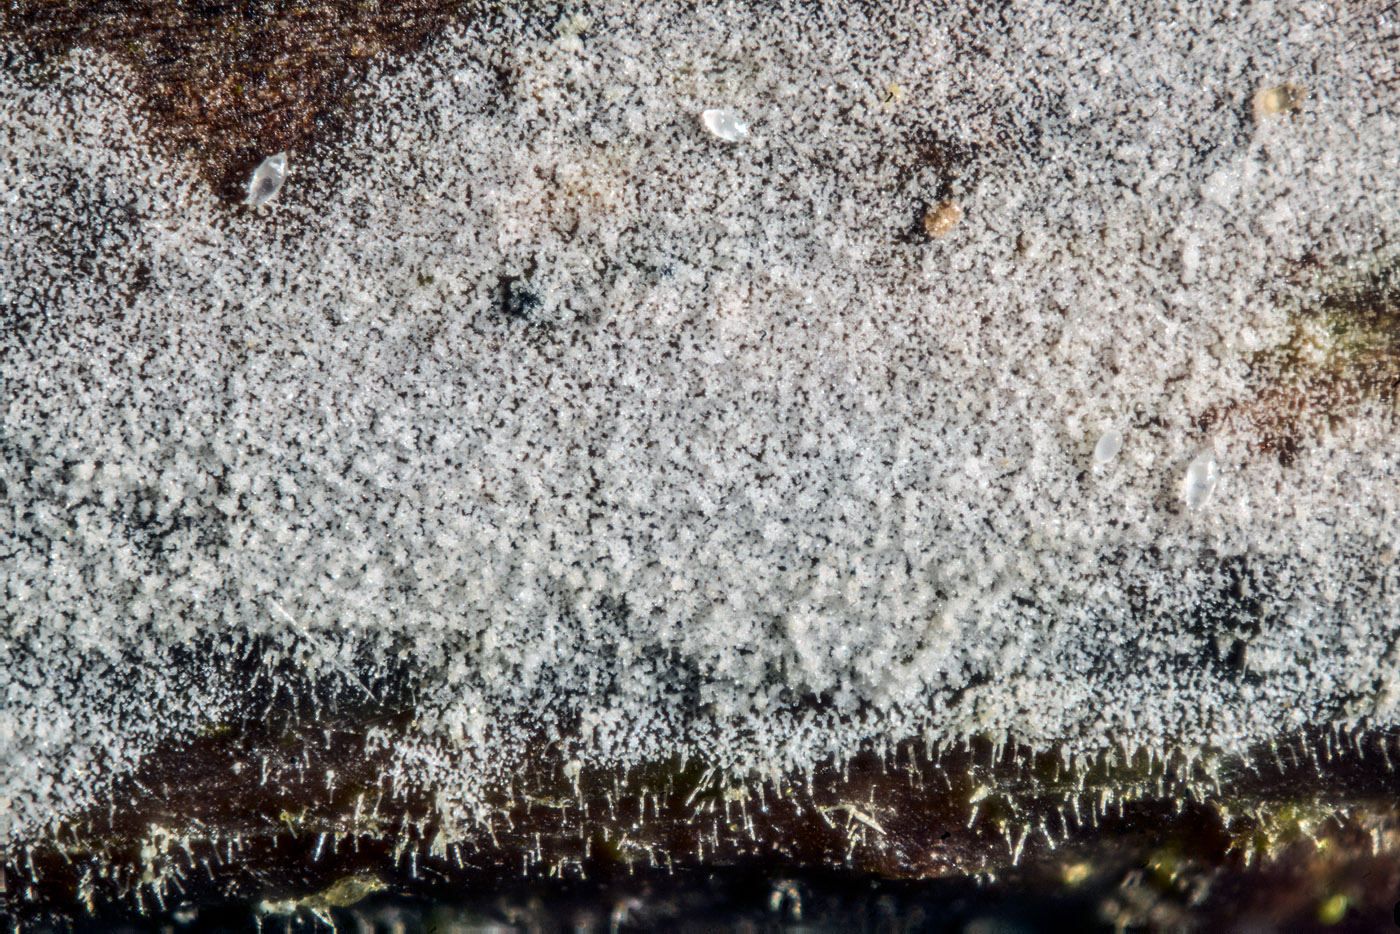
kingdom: Fungi
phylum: Basidiomycota
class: Agaricomycetes
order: Hymenochaetales
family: Hymenochaetaceae
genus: Tubulicrinis
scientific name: Tubulicrinis regificus
